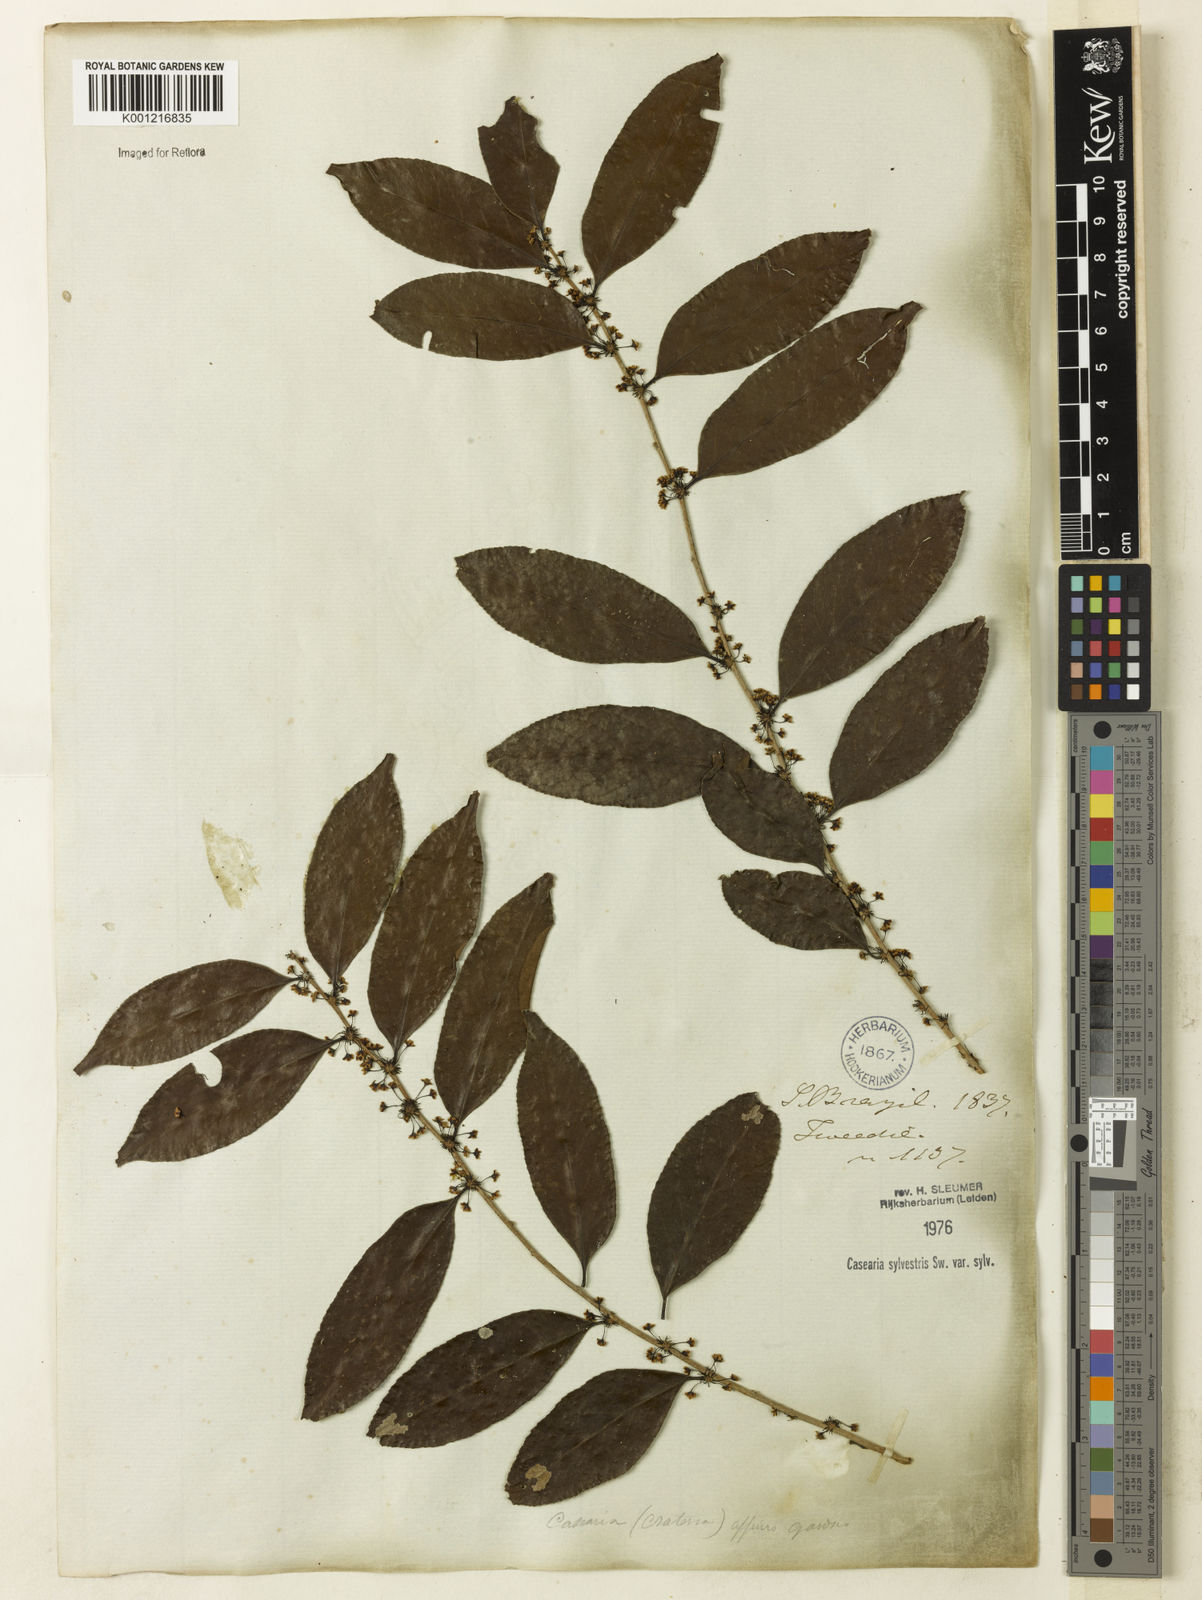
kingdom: Plantae
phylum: Tracheophyta
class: Magnoliopsida
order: Malpighiales
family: Salicaceae
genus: Casearia
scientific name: Casearia sylvestris
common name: Wild sage
